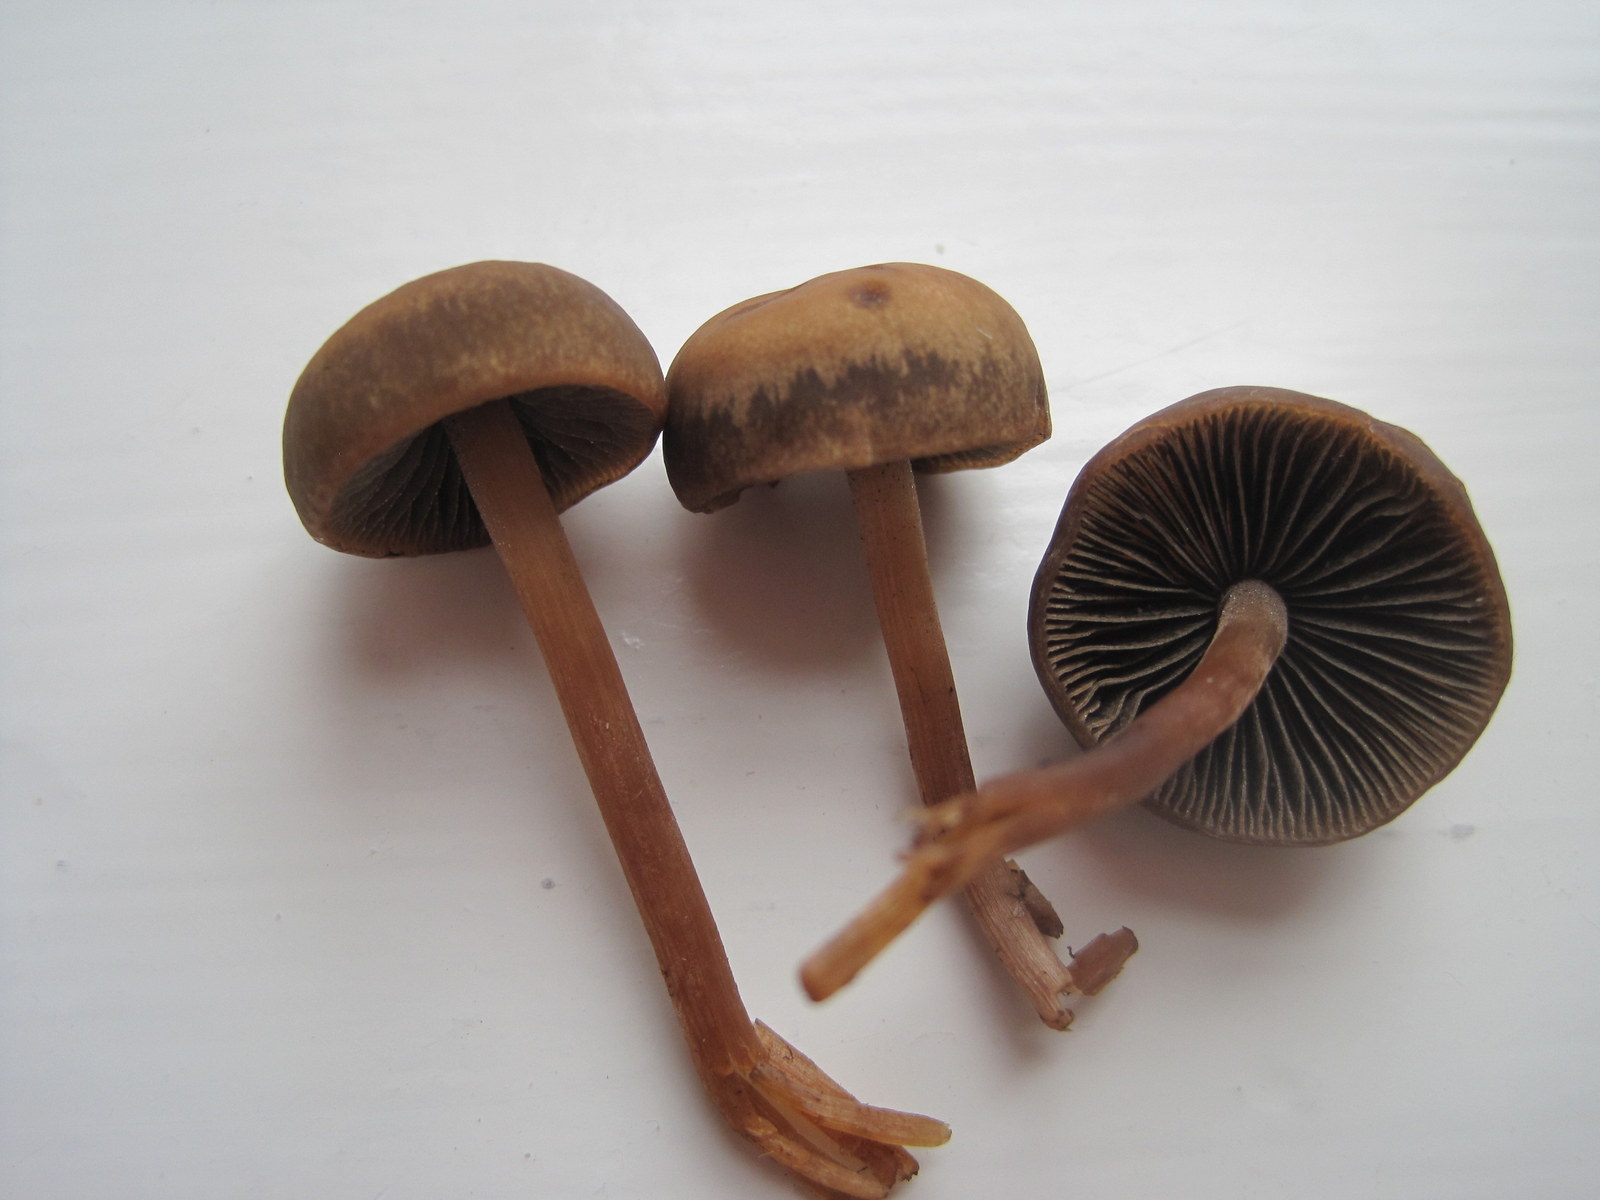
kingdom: Fungi
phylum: Basidiomycota
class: Agaricomycetes
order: Agaricales
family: Bolbitiaceae
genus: Panaeolus
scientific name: Panaeolus fimicola
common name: tidlig glanshat
